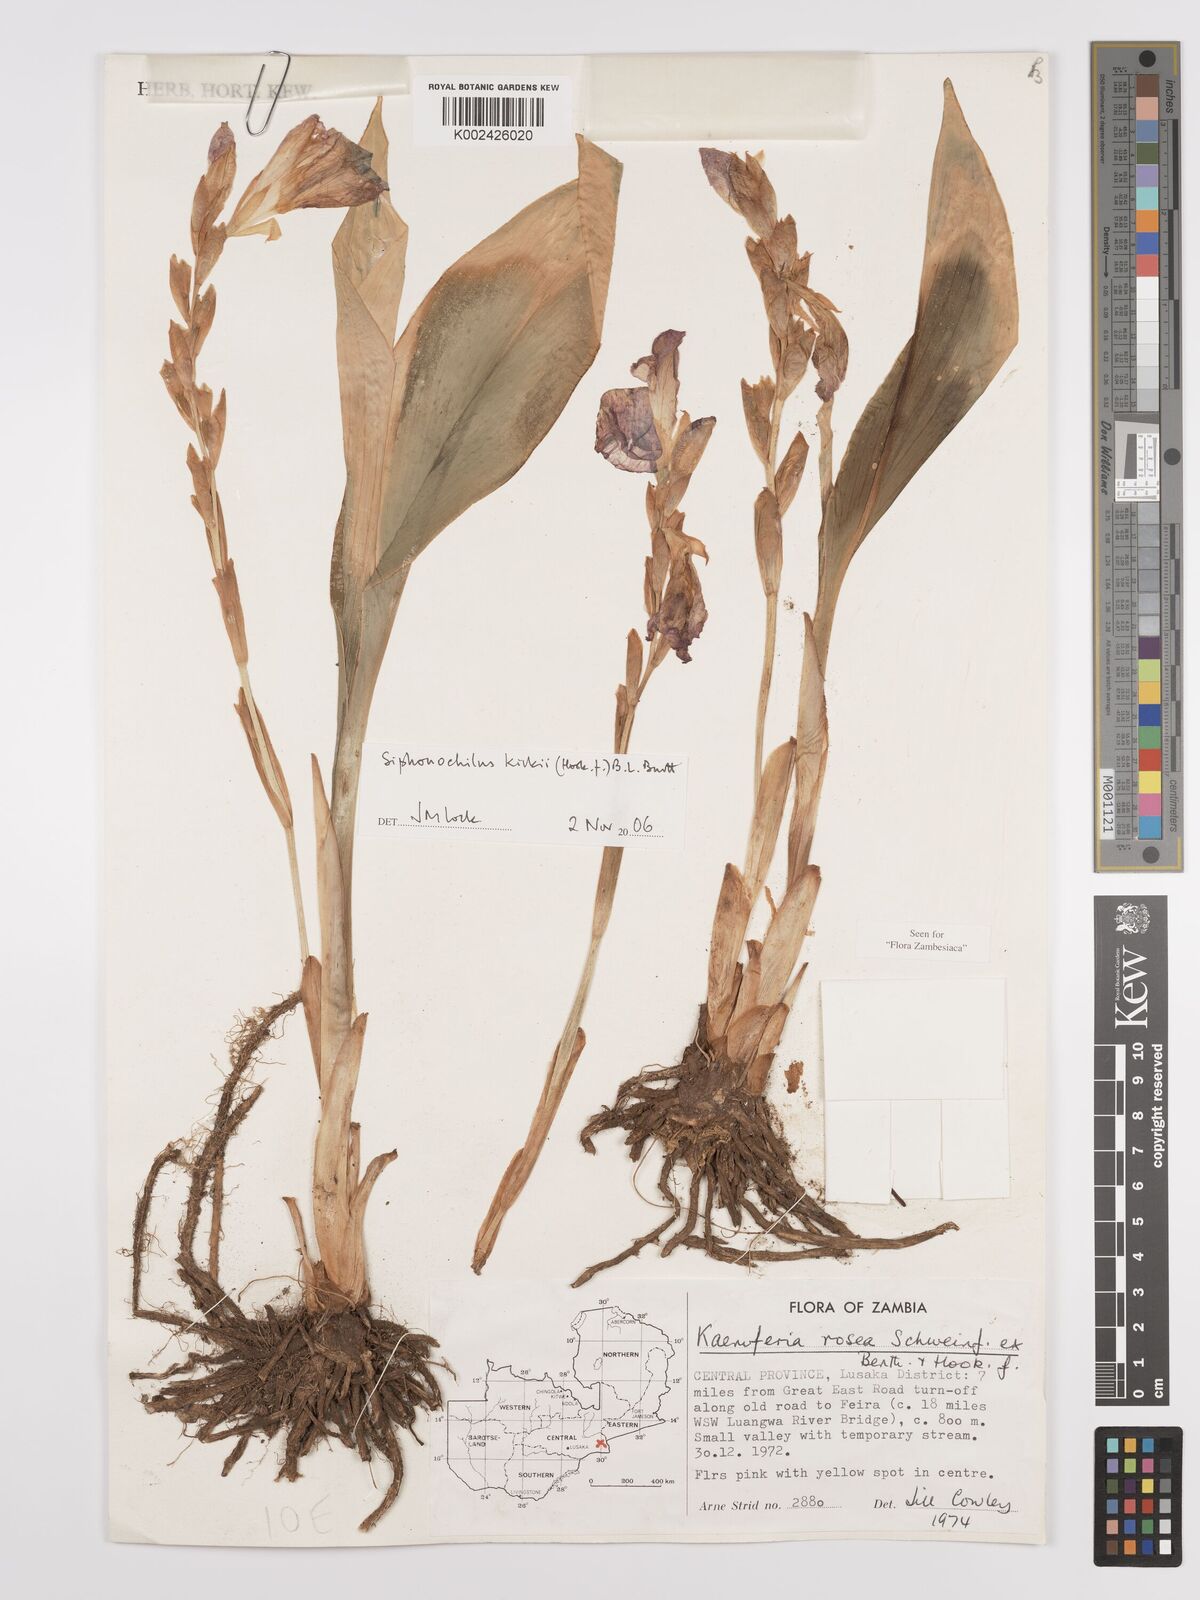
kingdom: Plantae
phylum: Tracheophyta
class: Liliopsida
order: Zingiberales
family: Zingiberaceae
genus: Siphonochilus
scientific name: Siphonochilus kirkii
